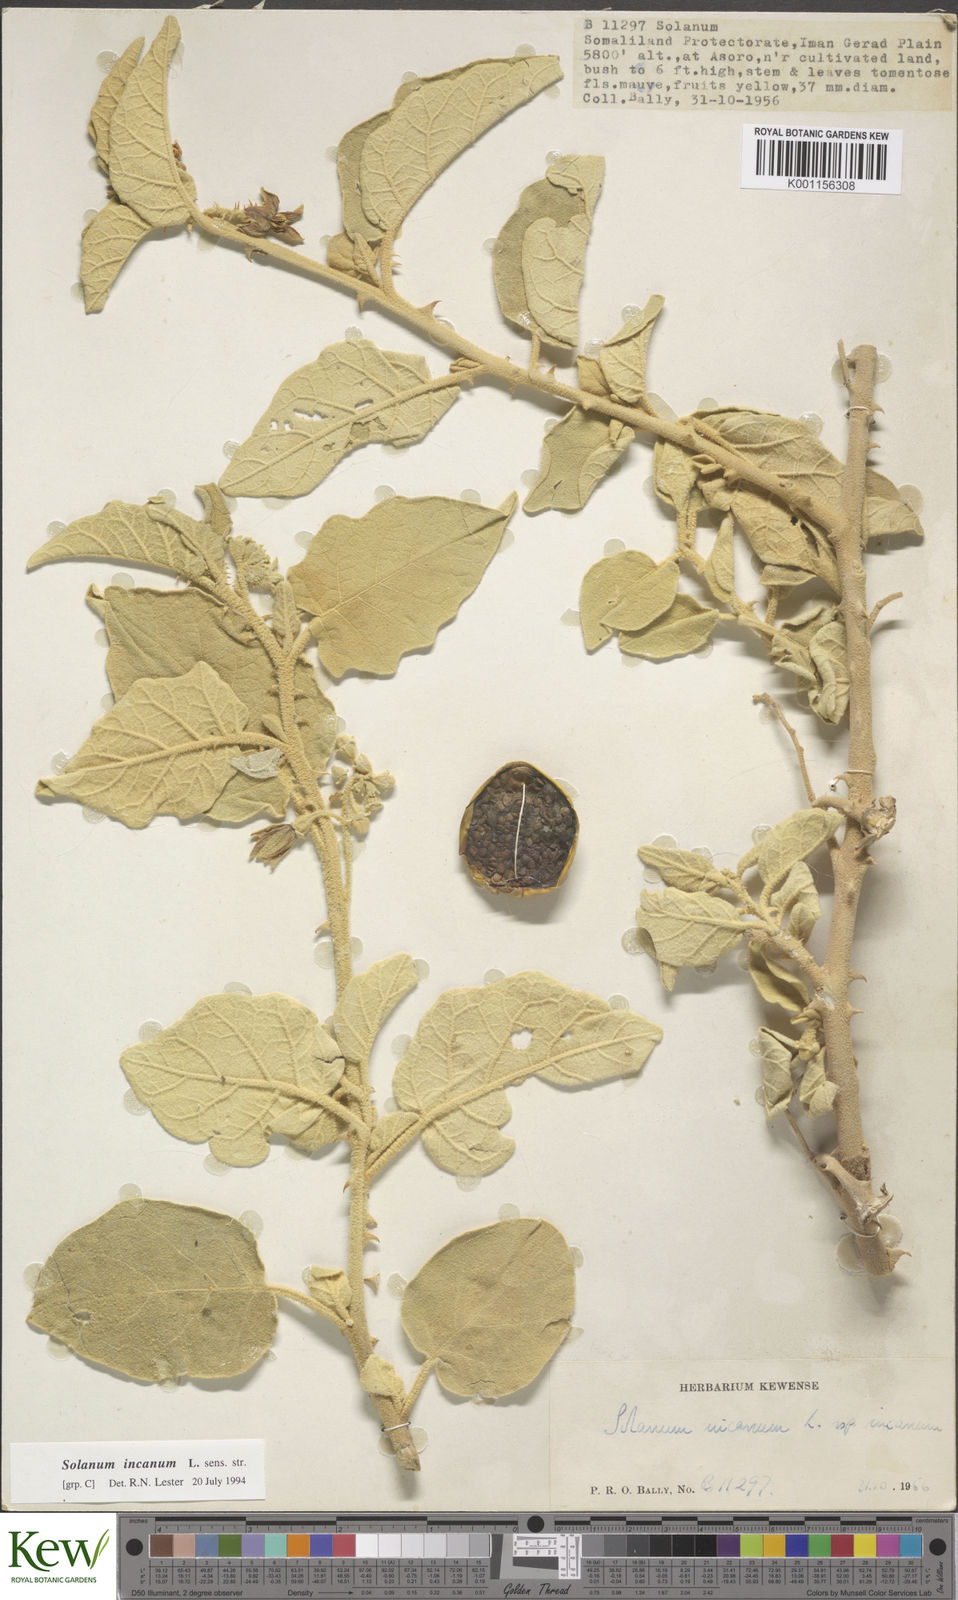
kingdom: Plantae
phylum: Tracheophyta
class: Magnoliopsida
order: Solanales
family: Solanaceae
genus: Solanum
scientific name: Solanum incanum
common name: Bitter apple
